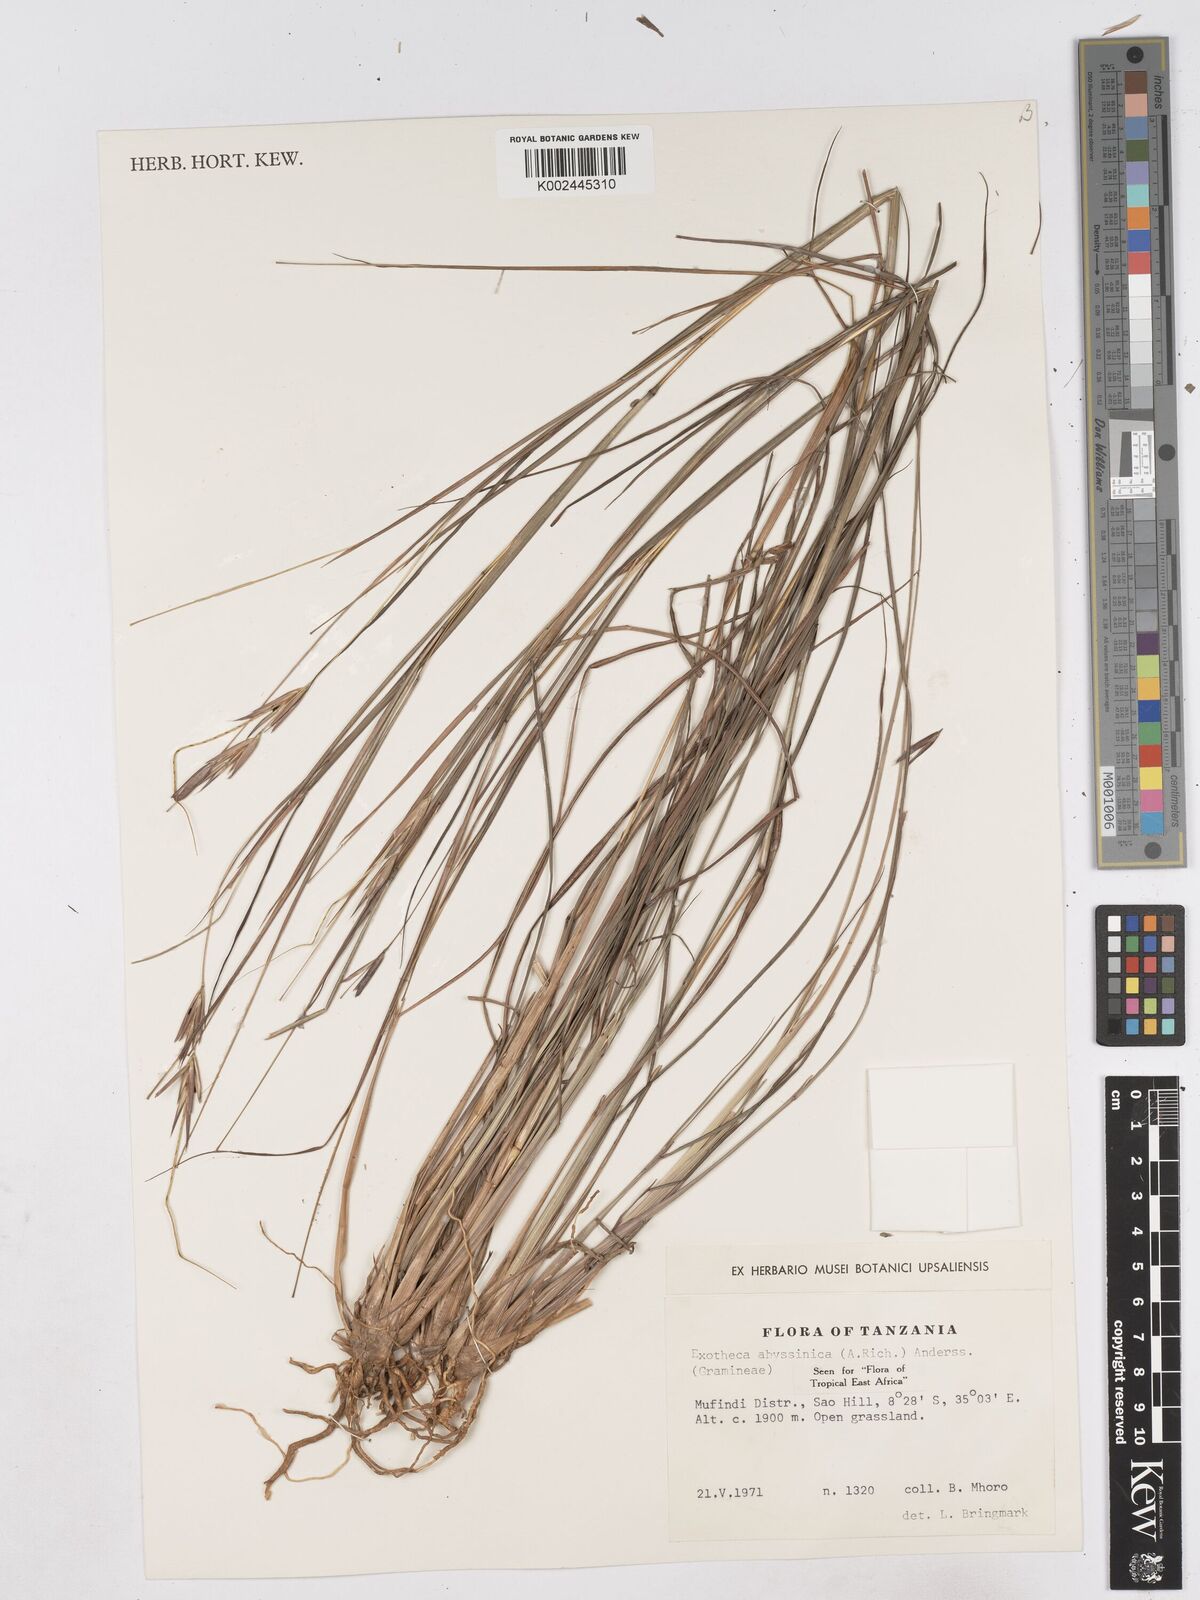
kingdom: Plantae
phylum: Tracheophyta
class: Liliopsida
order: Poales
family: Poaceae
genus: Exotheca
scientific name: Exotheca abyssinica
